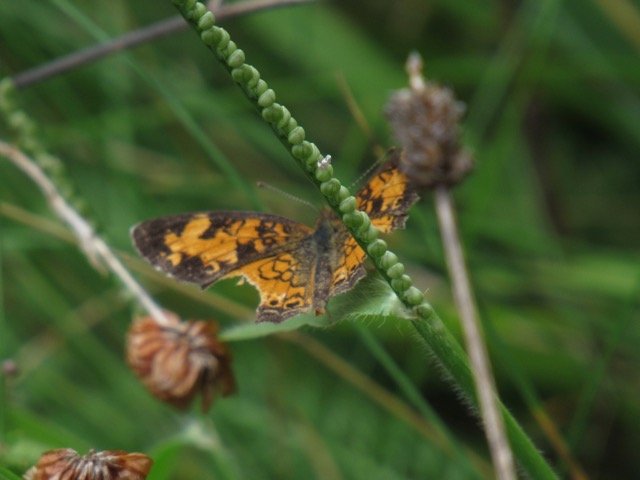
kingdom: Animalia
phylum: Arthropoda
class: Insecta
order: Lepidoptera
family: Nymphalidae
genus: Phyciodes
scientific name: Phyciodes tharos
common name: Pearl Crescent
